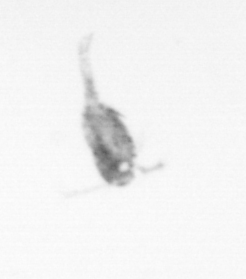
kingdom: Animalia
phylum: Arthropoda
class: Copepoda
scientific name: Copepoda
